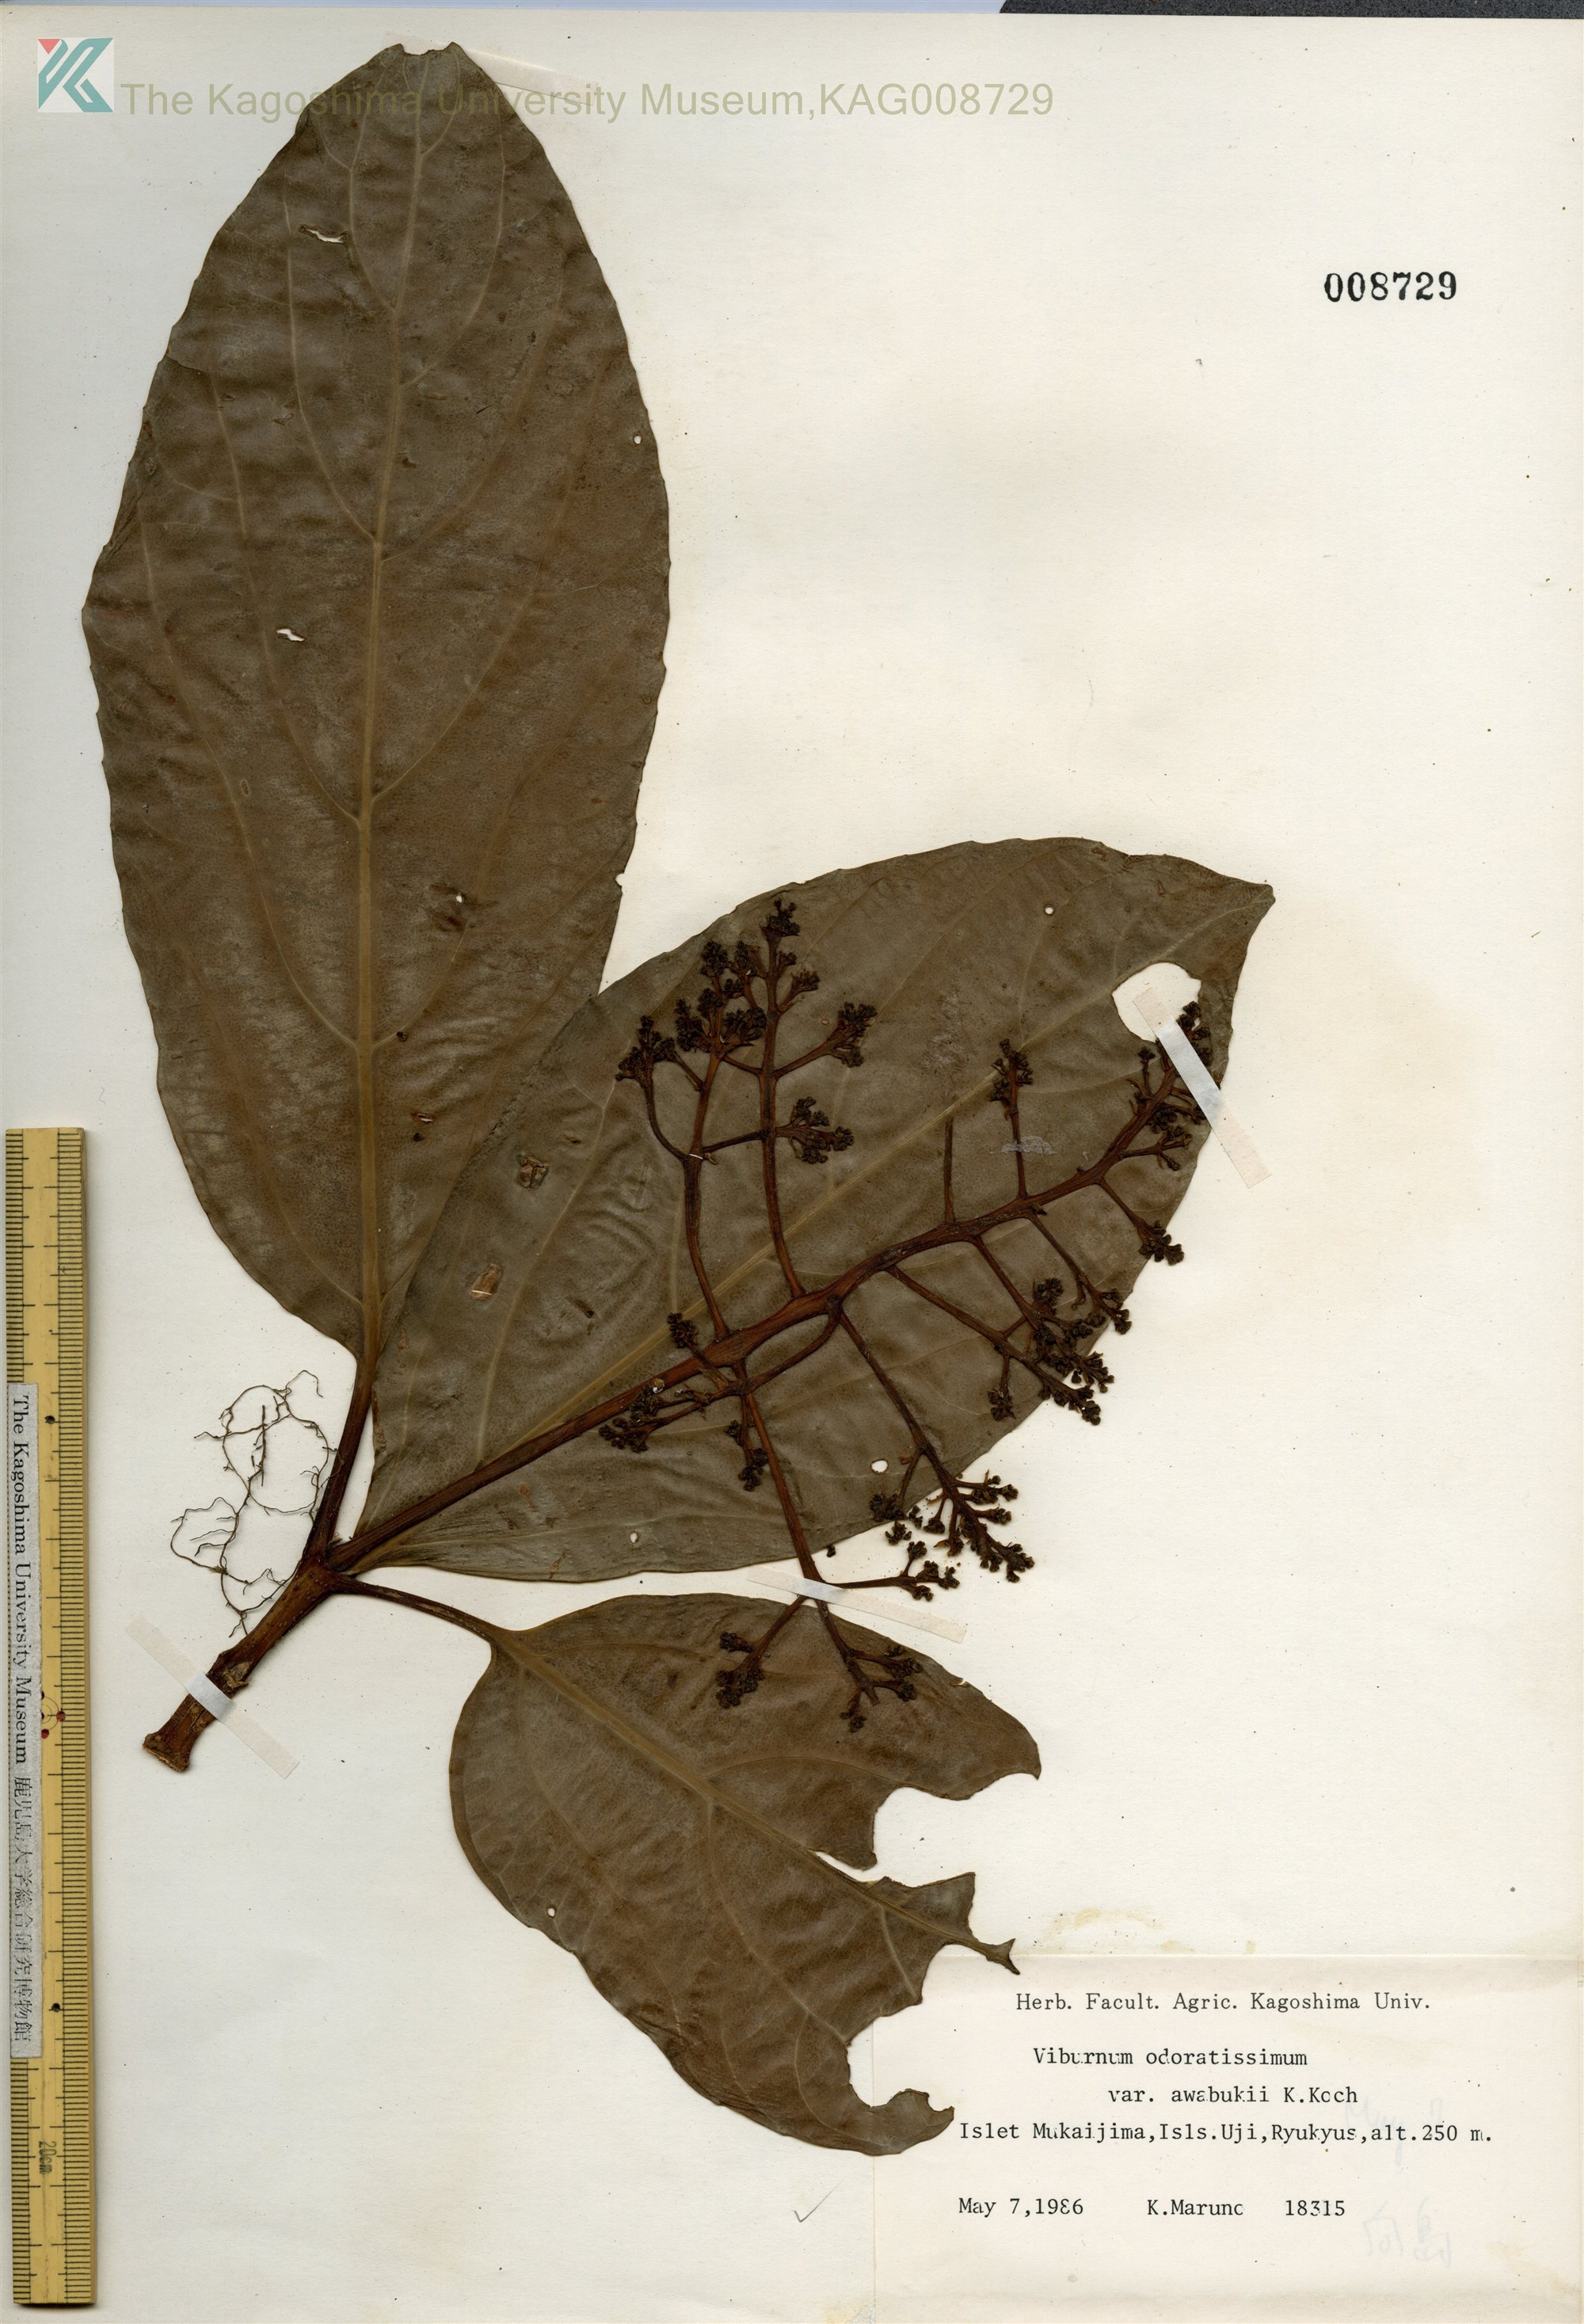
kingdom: Plantae
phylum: Tracheophyta
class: Magnoliopsida
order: Dipsacales
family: Viburnaceae
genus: Viburnum
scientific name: Viburnum odoratissimum
